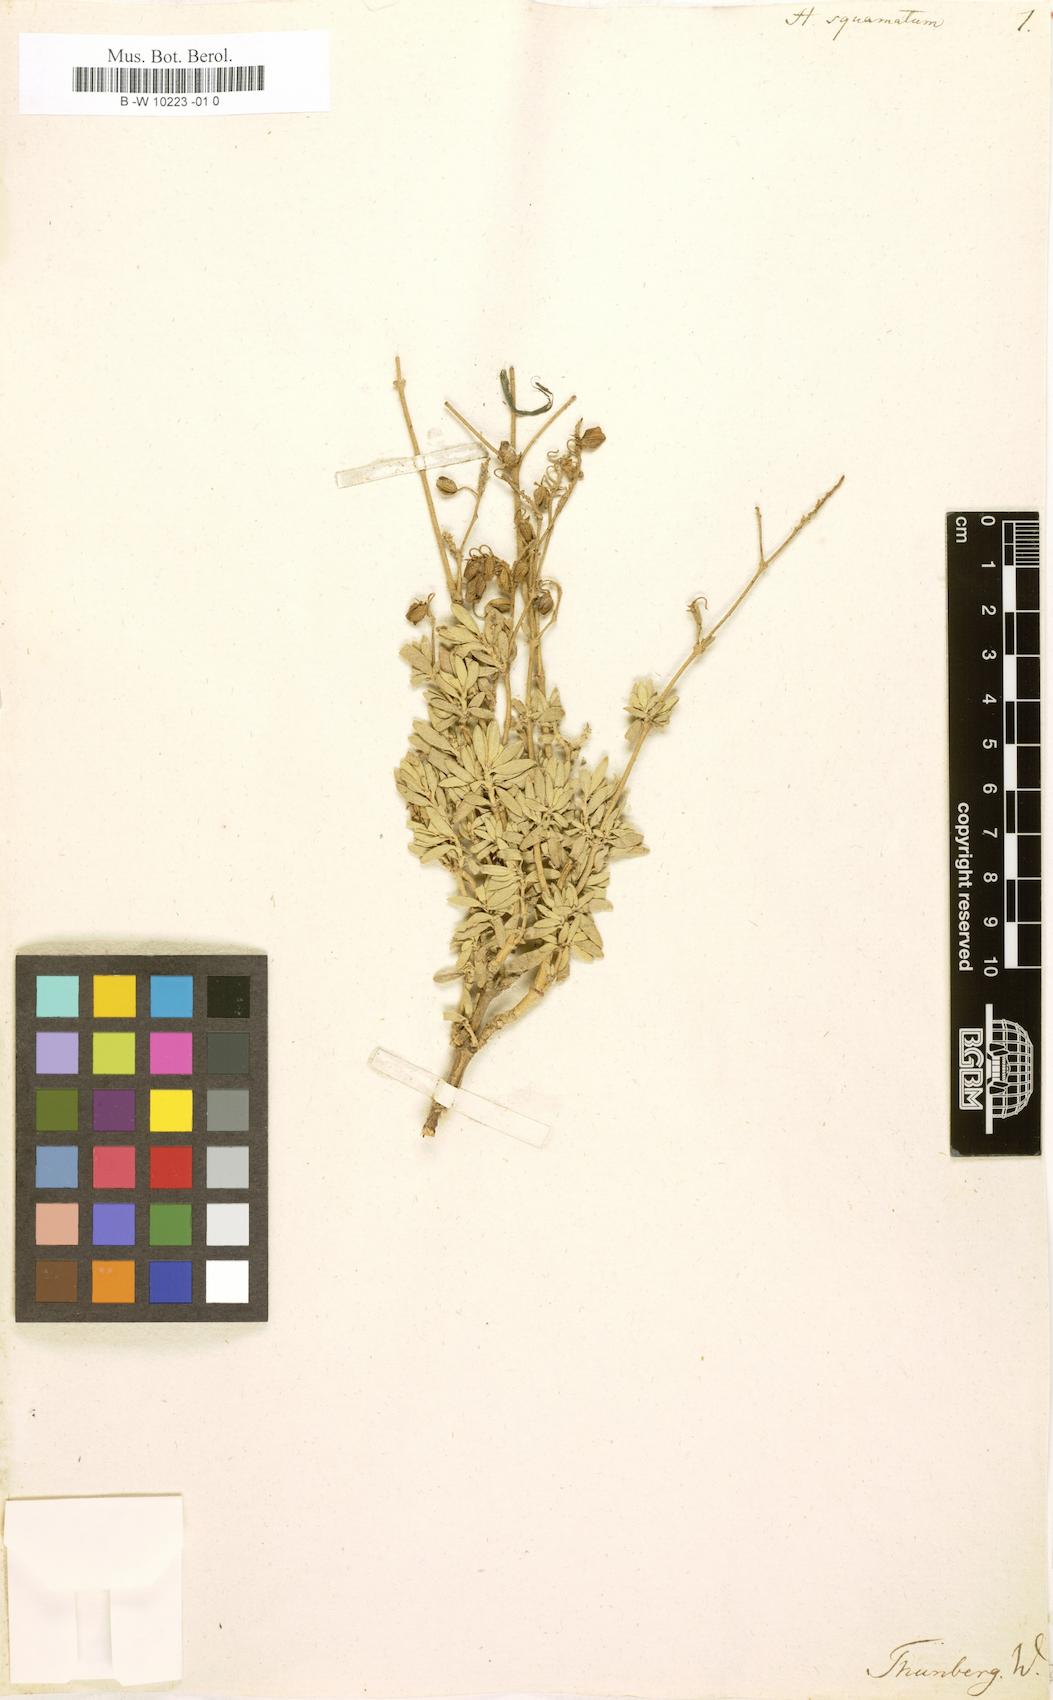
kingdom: Plantae
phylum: Tracheophyta
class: Magnoliopsida
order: Malvales
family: Cistaceae
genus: Helianthemum
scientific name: Helianthemum squamatum
